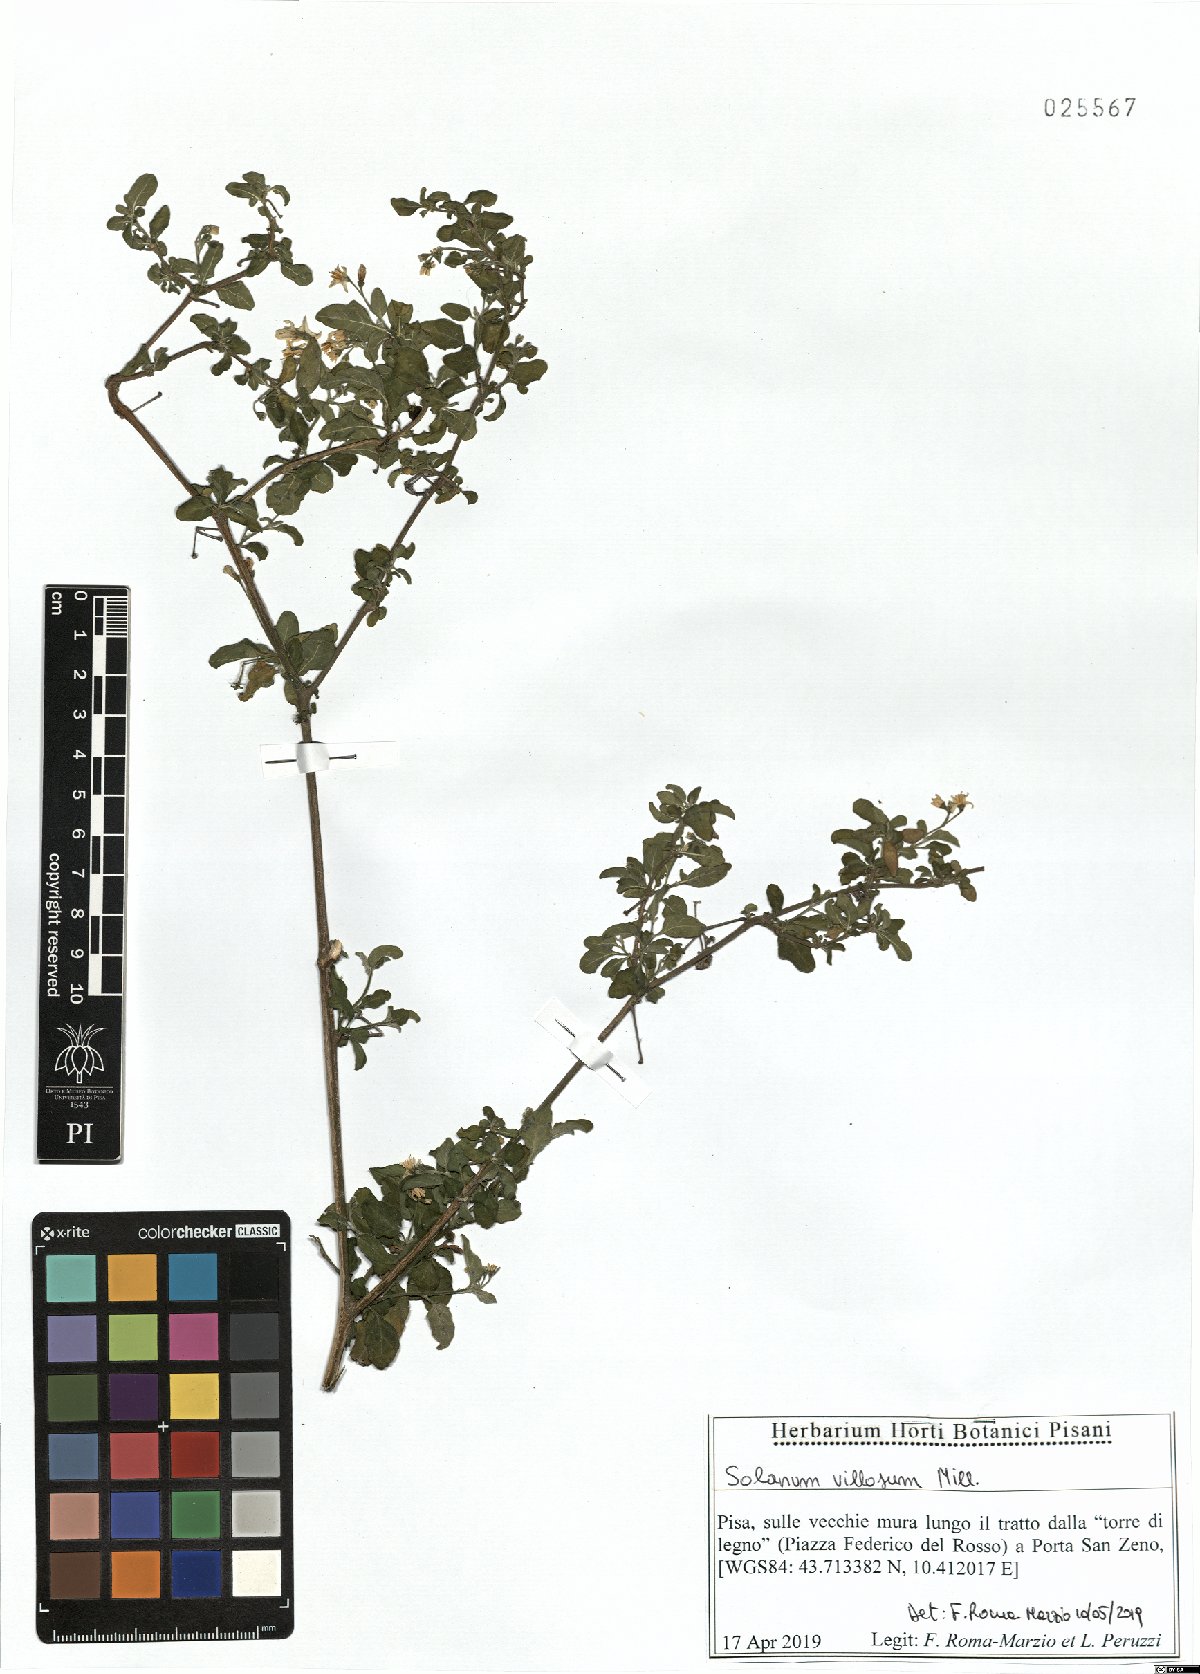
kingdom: Plantae
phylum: Tracheophyta
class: Magnoliopsida
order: Solanales
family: Solanaceae
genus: Solanum
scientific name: Solanum villosum
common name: Red nightshade
